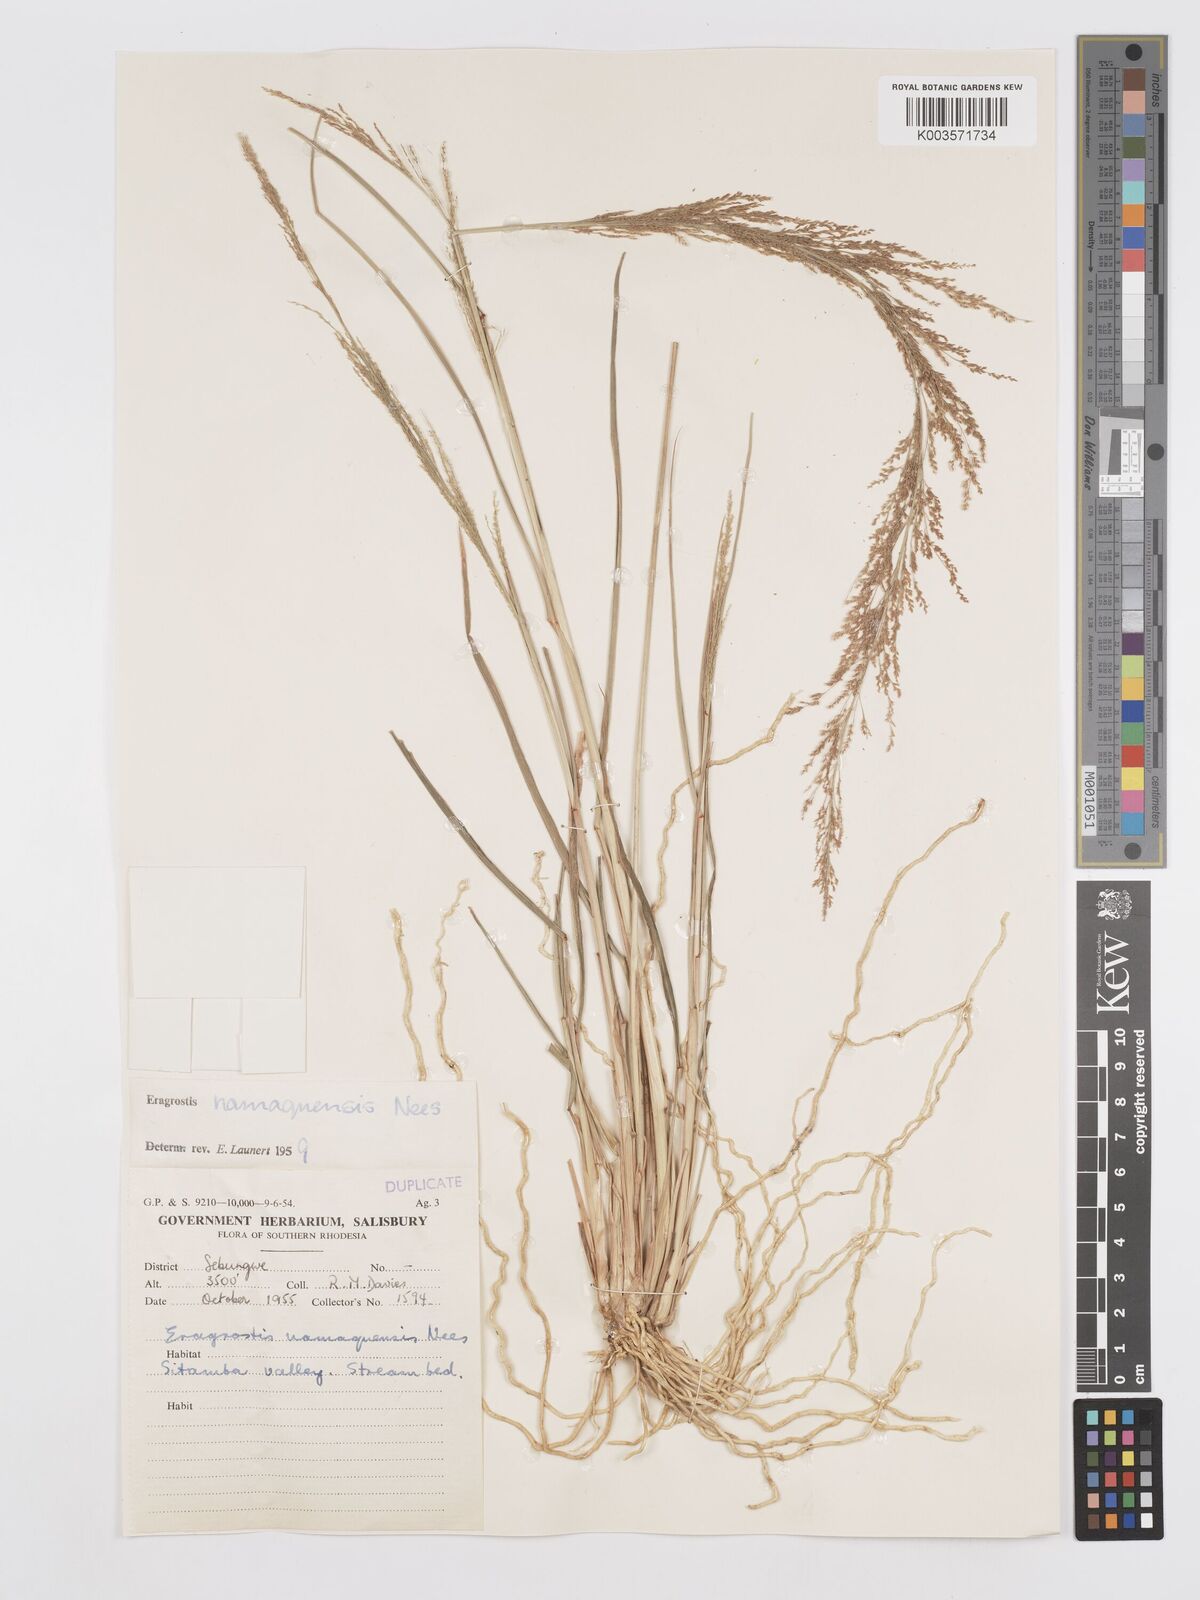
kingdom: Plantae
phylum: Tracheophyta
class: Liliopsida
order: Poales
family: Poaceae
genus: Eragrostis
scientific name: Eragrostis japonica
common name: Pond lovegrass
